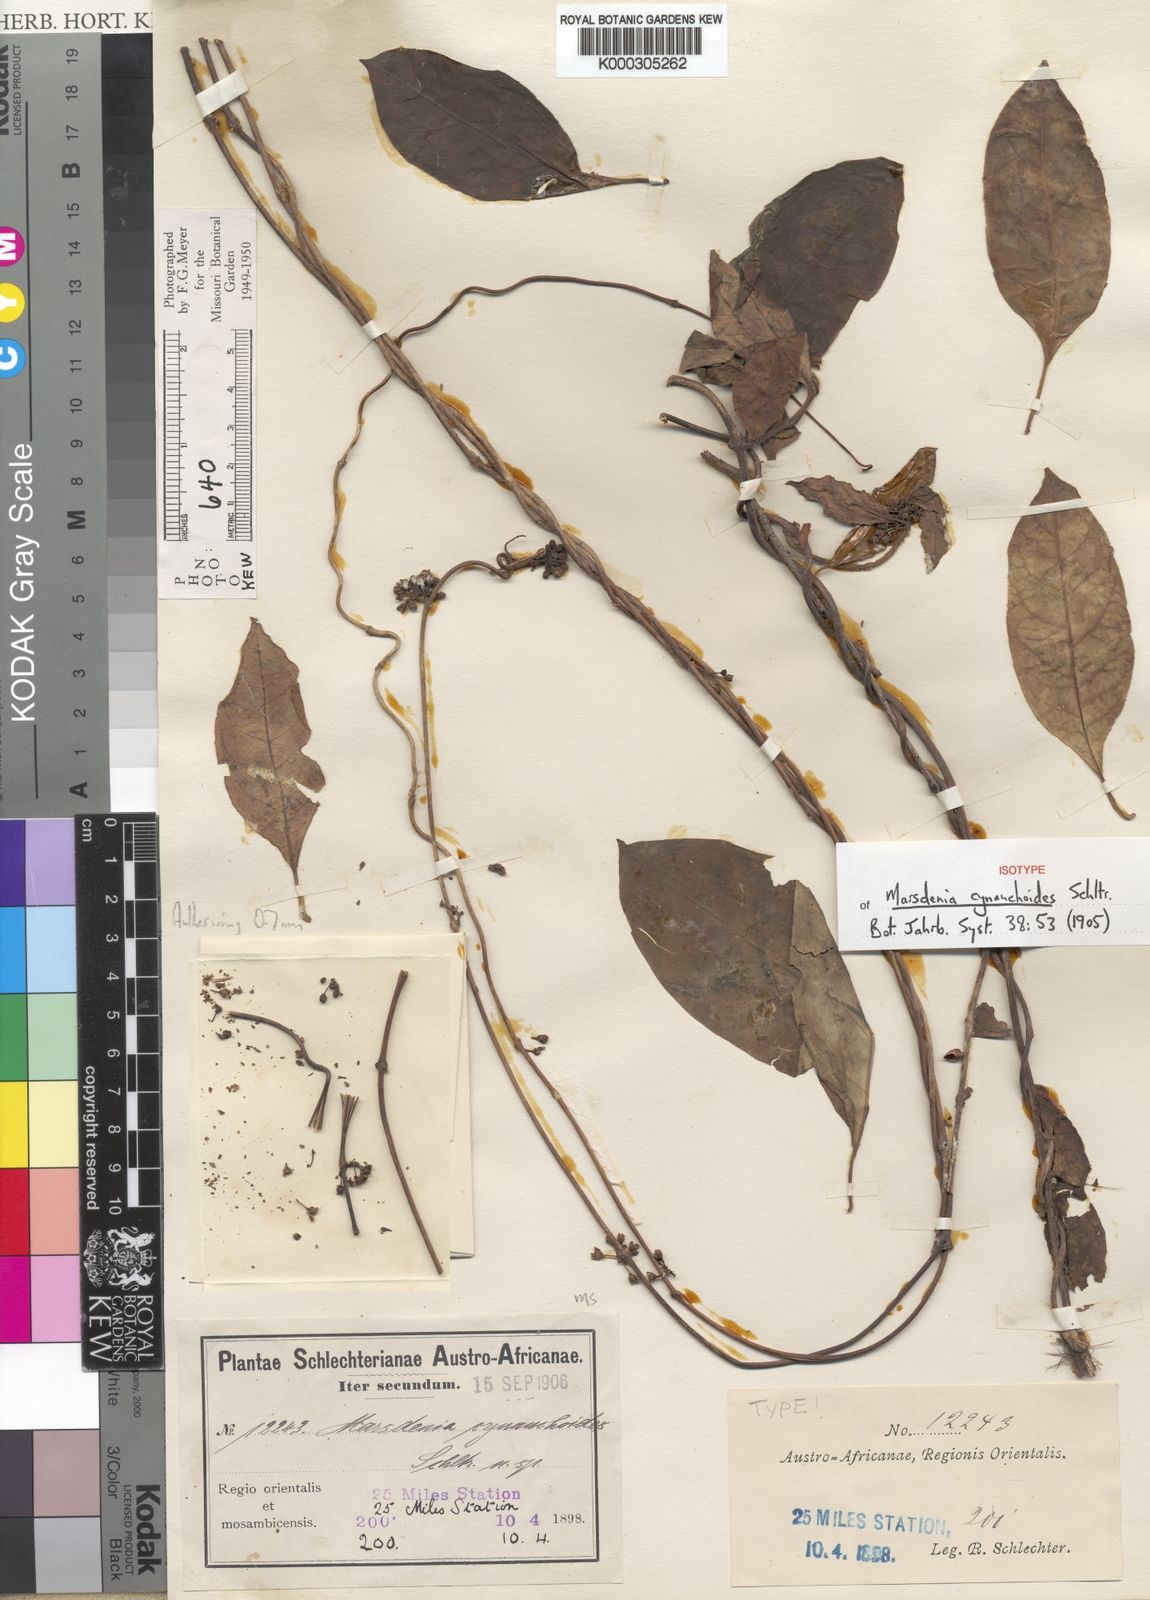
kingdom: Plantae
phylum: Tracheophyta
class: Magnoliopsida
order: Gentianales
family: Apocynaceae
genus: Gongronema
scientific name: Gongronema taylorii
